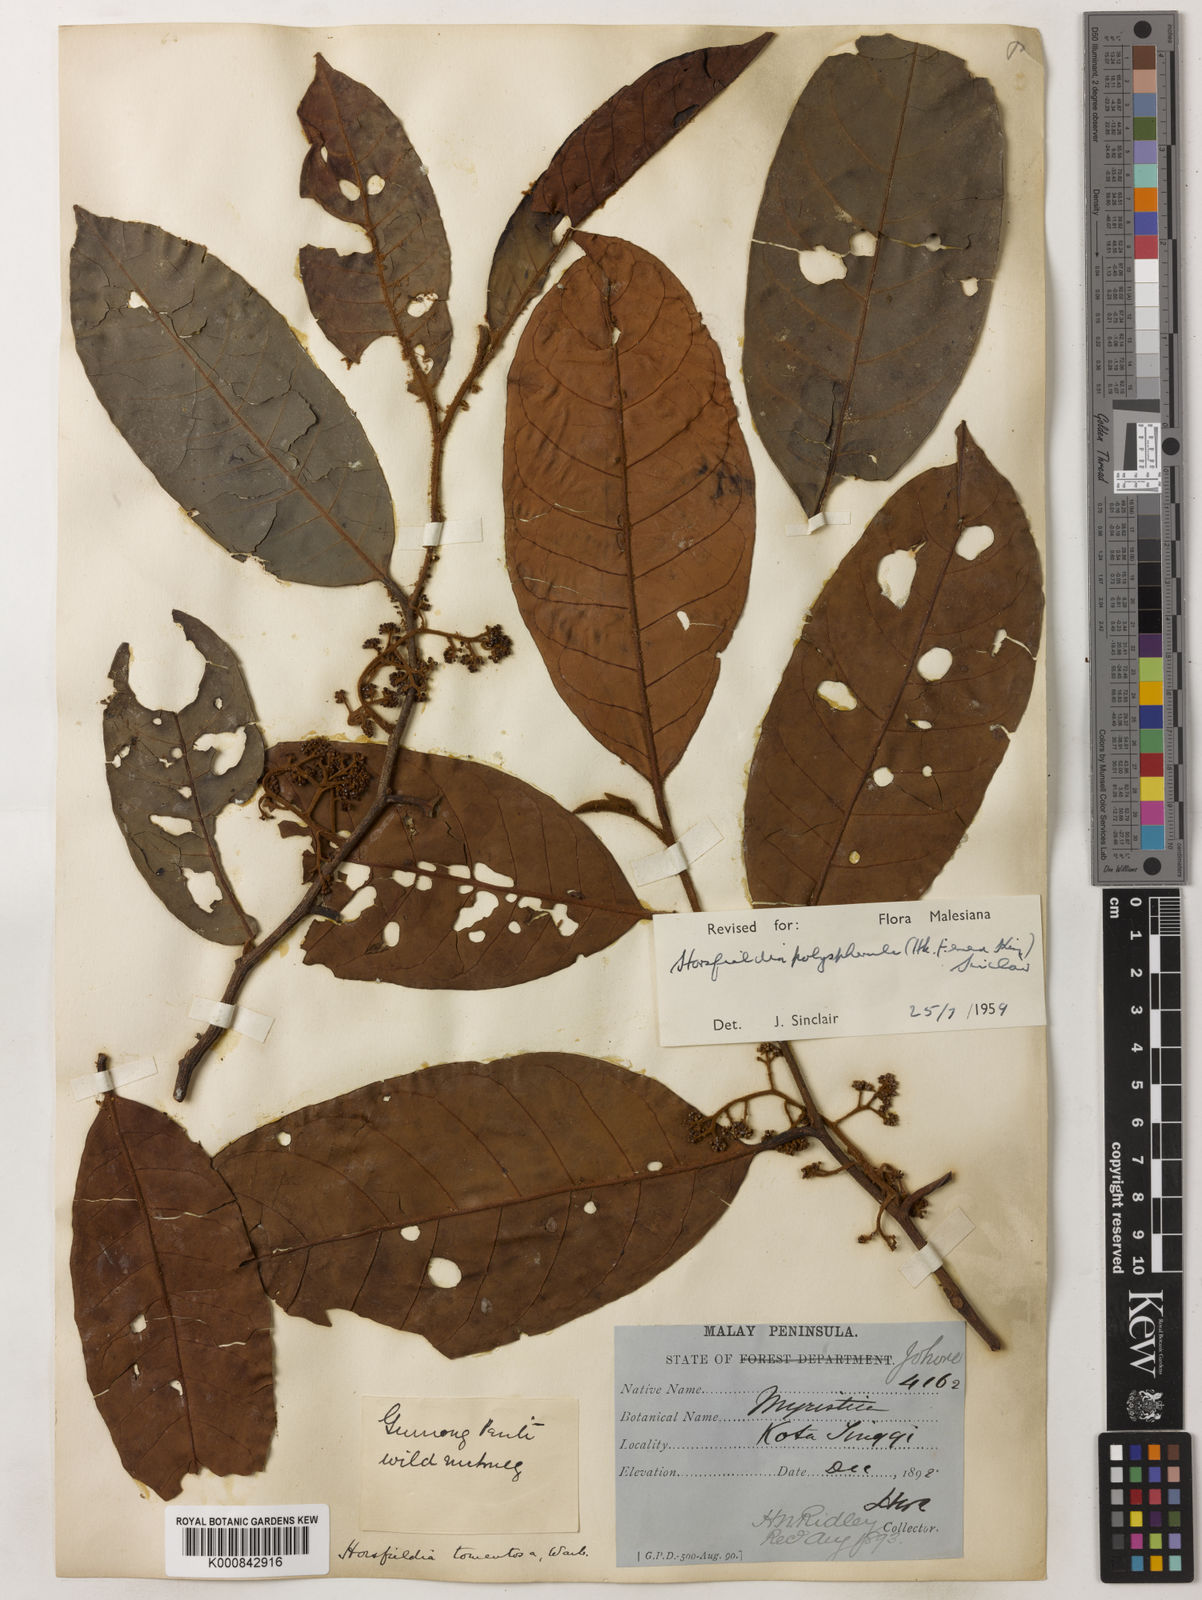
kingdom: Plantae
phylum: Tracheophyta
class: Magnoliopsida
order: Magnoliales
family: Myristicaceae
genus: Horsfieldia
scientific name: Horsfieldia
